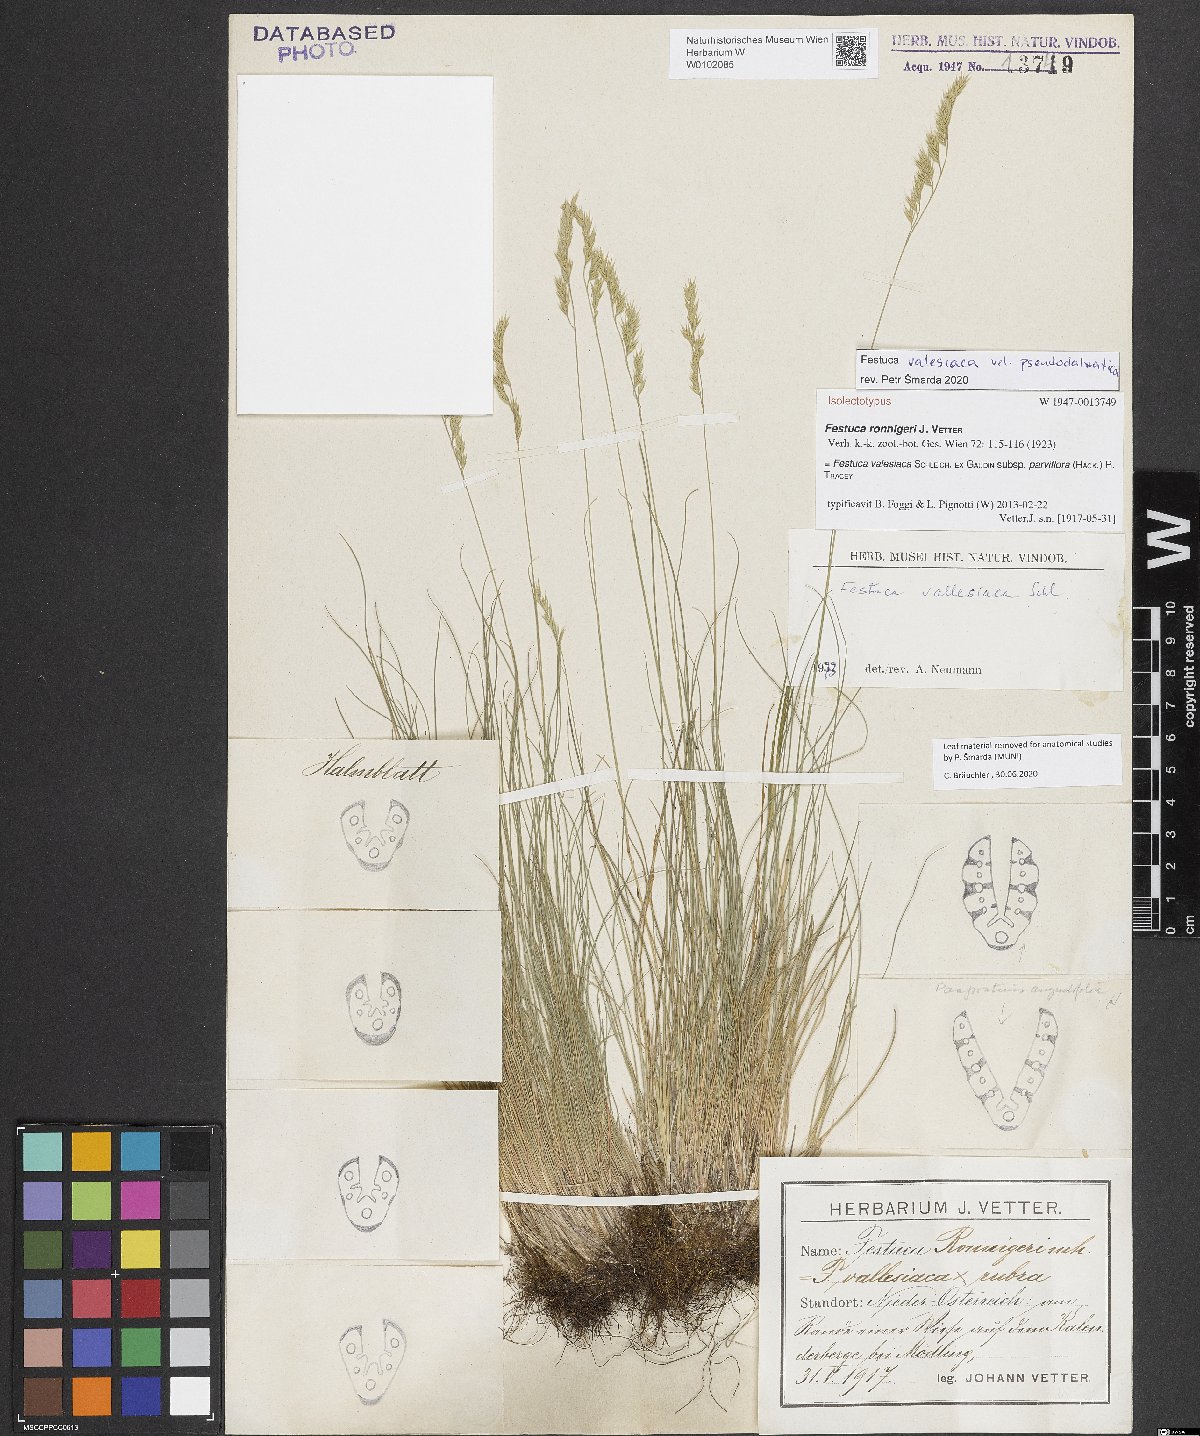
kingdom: Plantae
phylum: Tracheophyta
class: Liliopsida
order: Poales
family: Poaceae
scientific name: Poaceae
